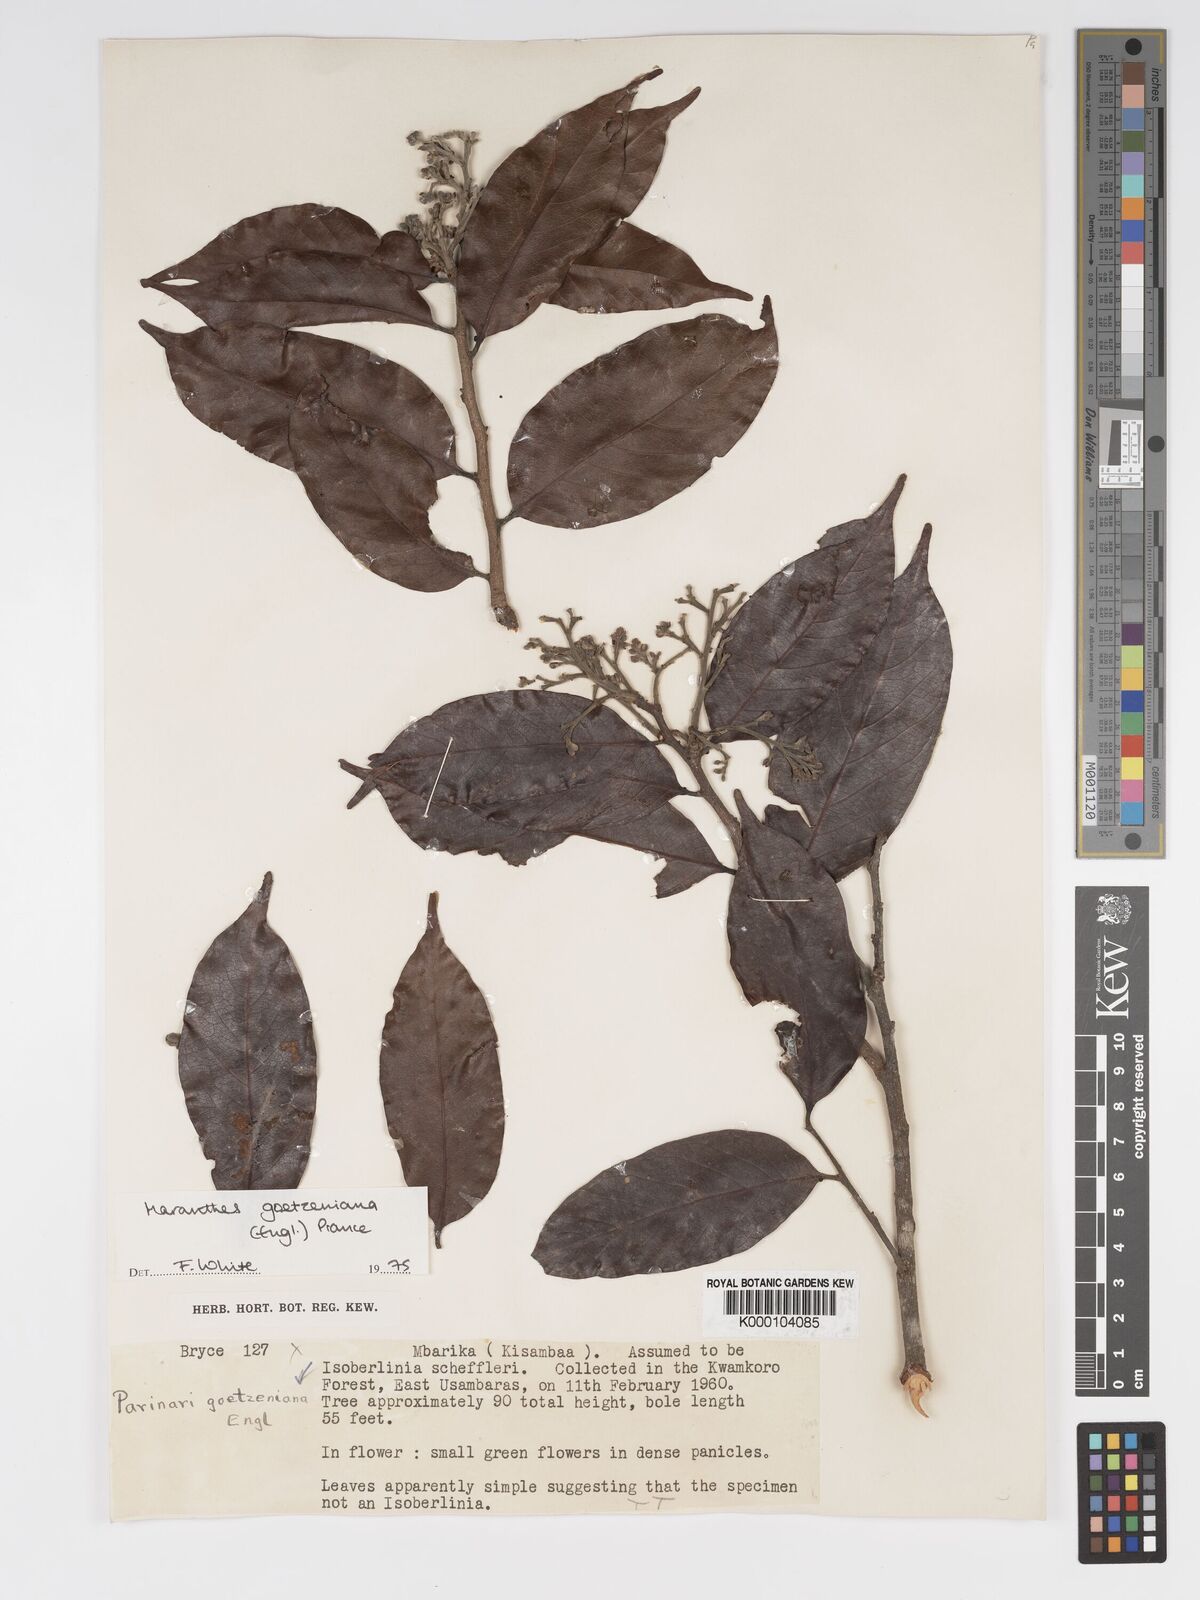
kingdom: Plantae
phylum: Tracheophyta
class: Magnoliopsida
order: Malpighiales
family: Chrysobalanaceae
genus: Maranthes
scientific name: Maranthes goetzeniana
